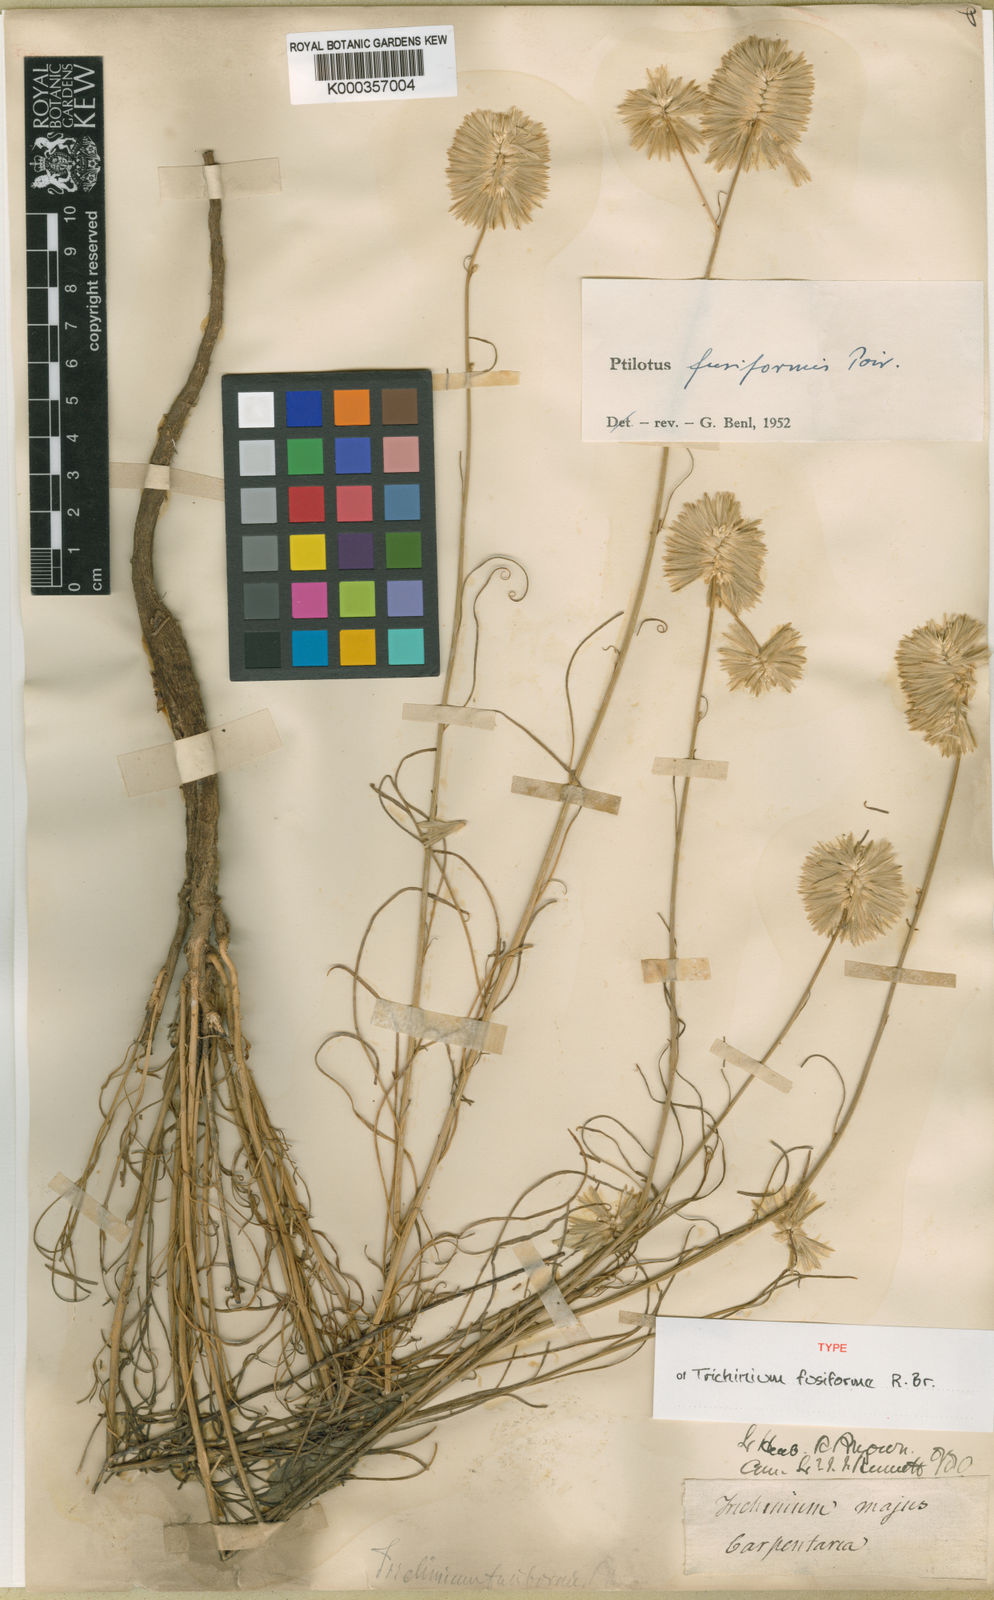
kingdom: Plantae
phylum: Tracheophyta
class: Magnoliopsida
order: Caryophyllales
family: Amaranthaceae
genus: Ptilotus
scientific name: Ptilotus fusiformis
